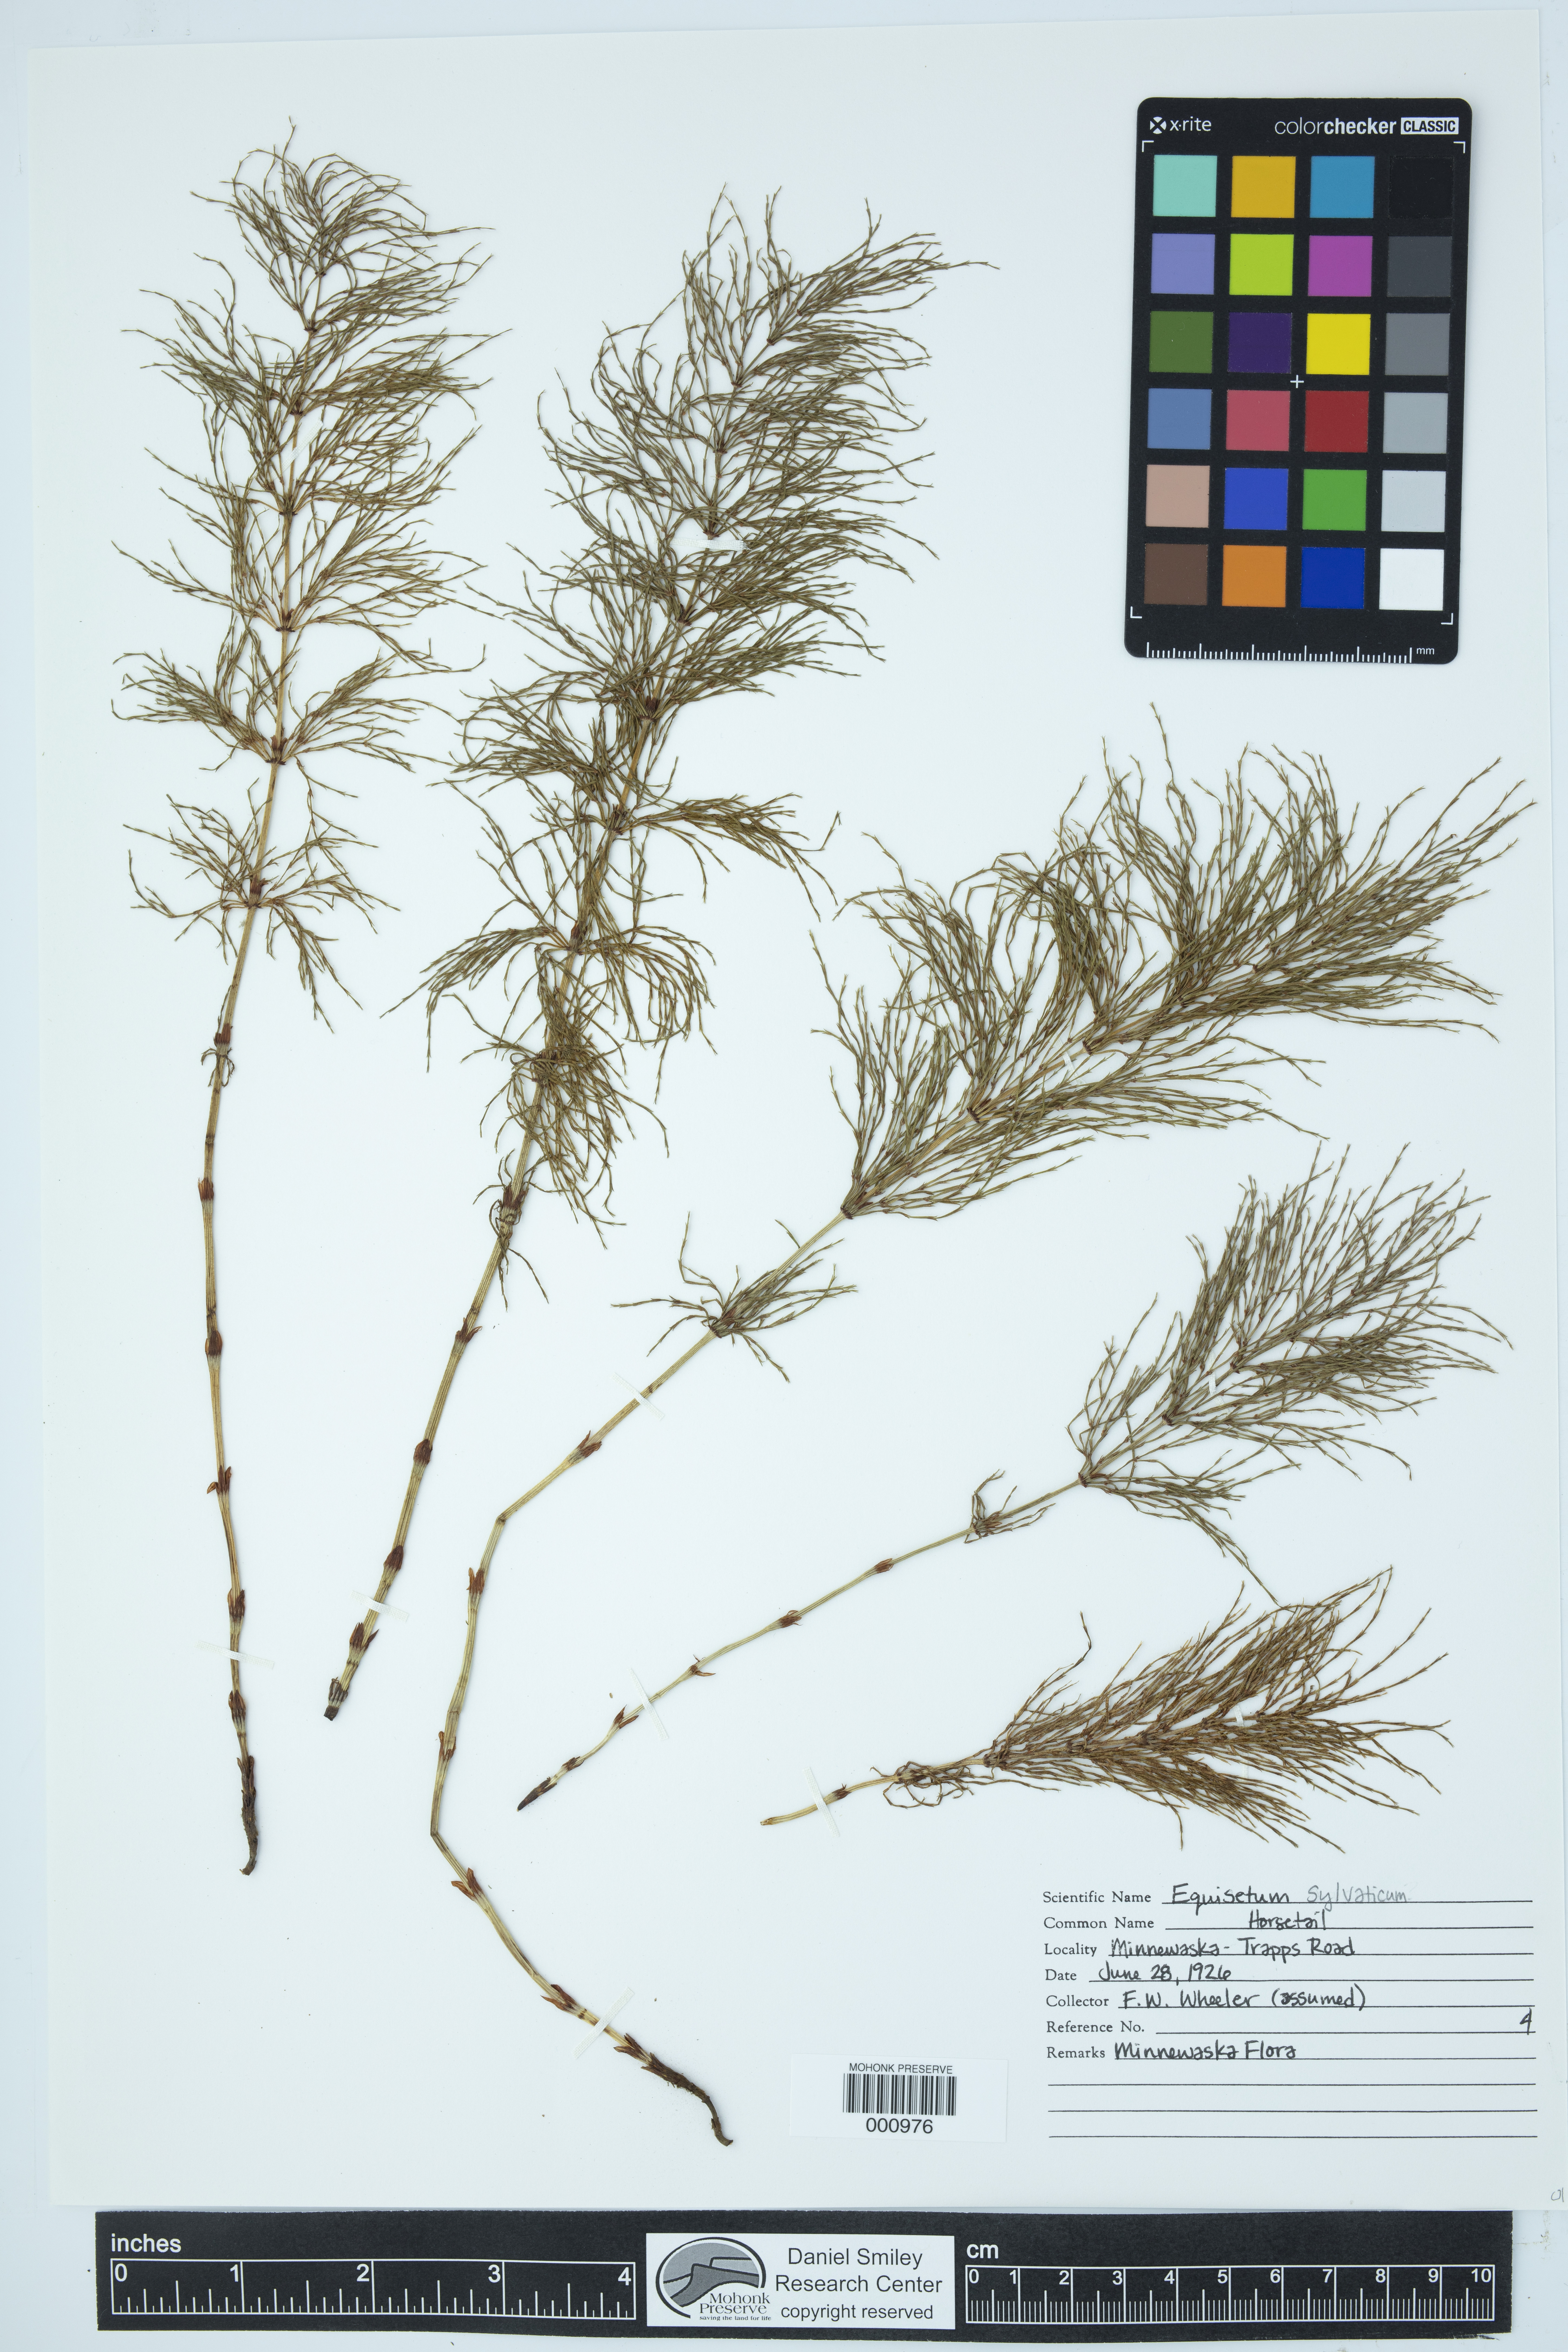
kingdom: Plantae
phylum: Tracheophyta
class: Polypodiopsida
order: Equisetales
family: Equisetaceae
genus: Equisetum
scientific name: Equisetum sylvaticum
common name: Wood horsetail
